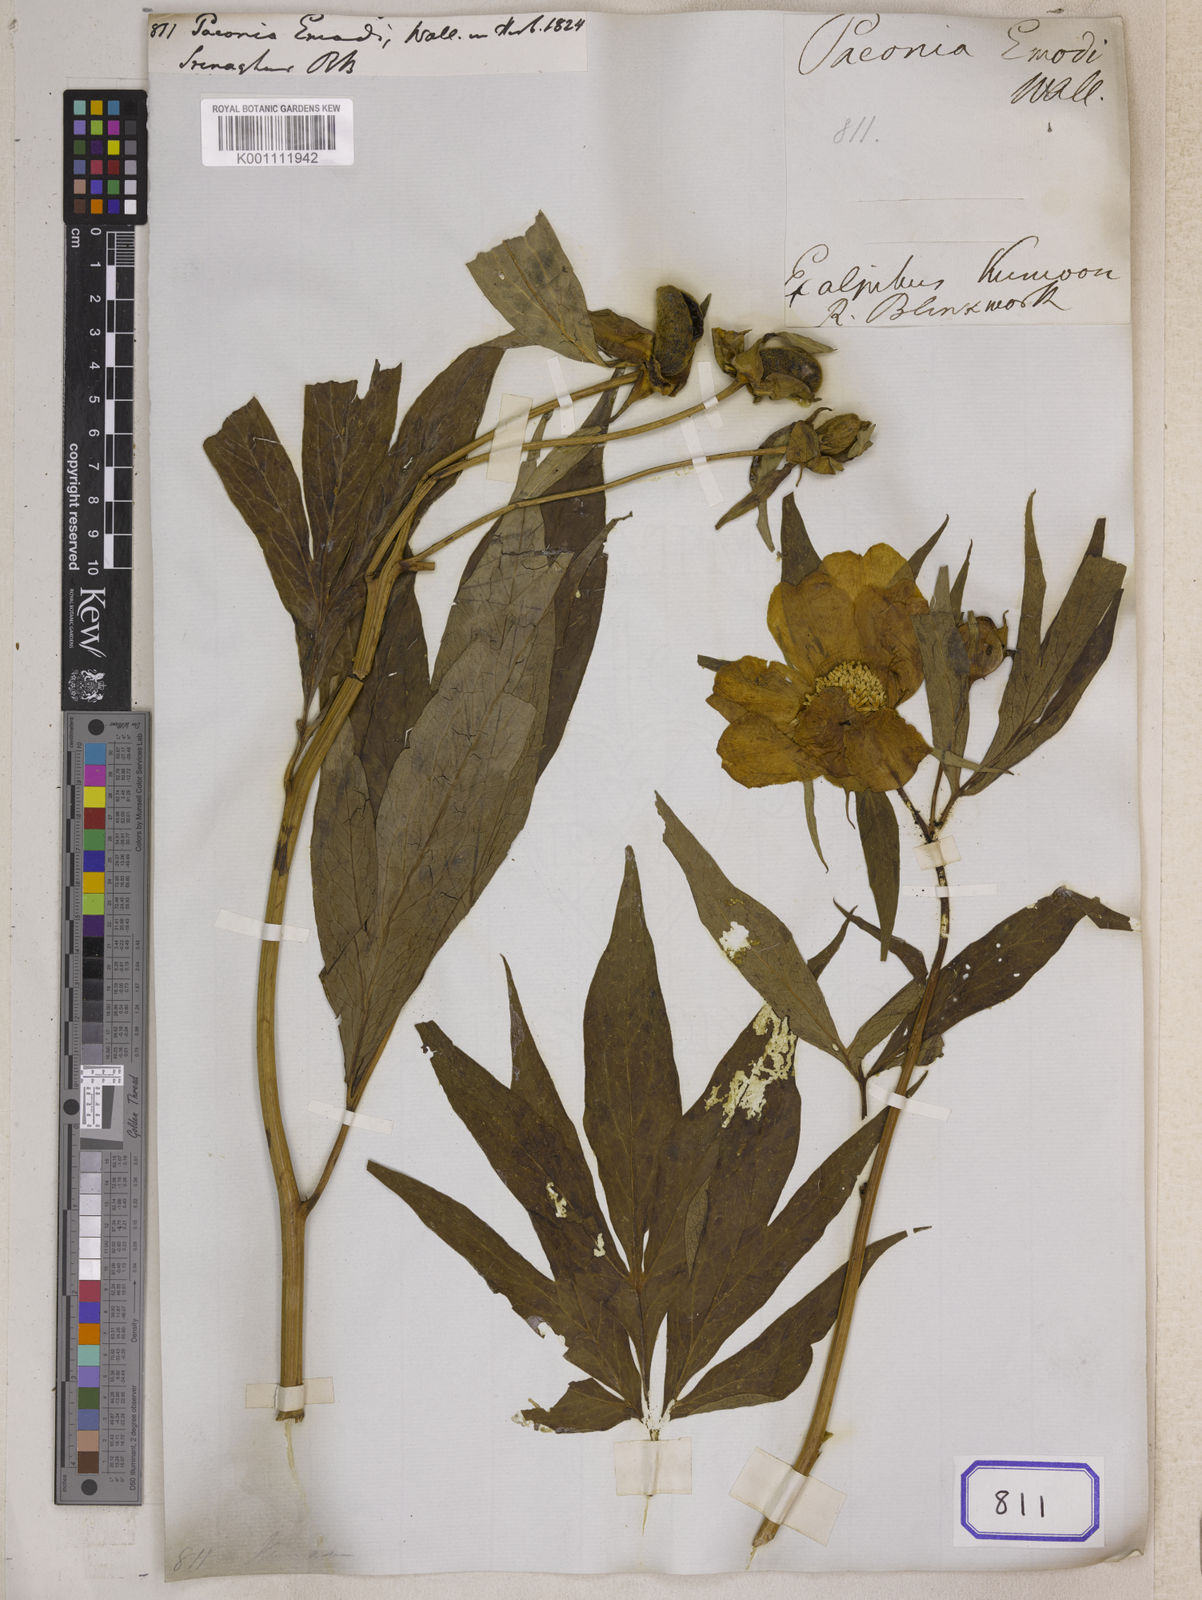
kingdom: Plantae
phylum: Tracheophyta
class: Magnoliopsida
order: Saxifragales
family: Paeoniaceae
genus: Paeonia
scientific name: Paeonia
